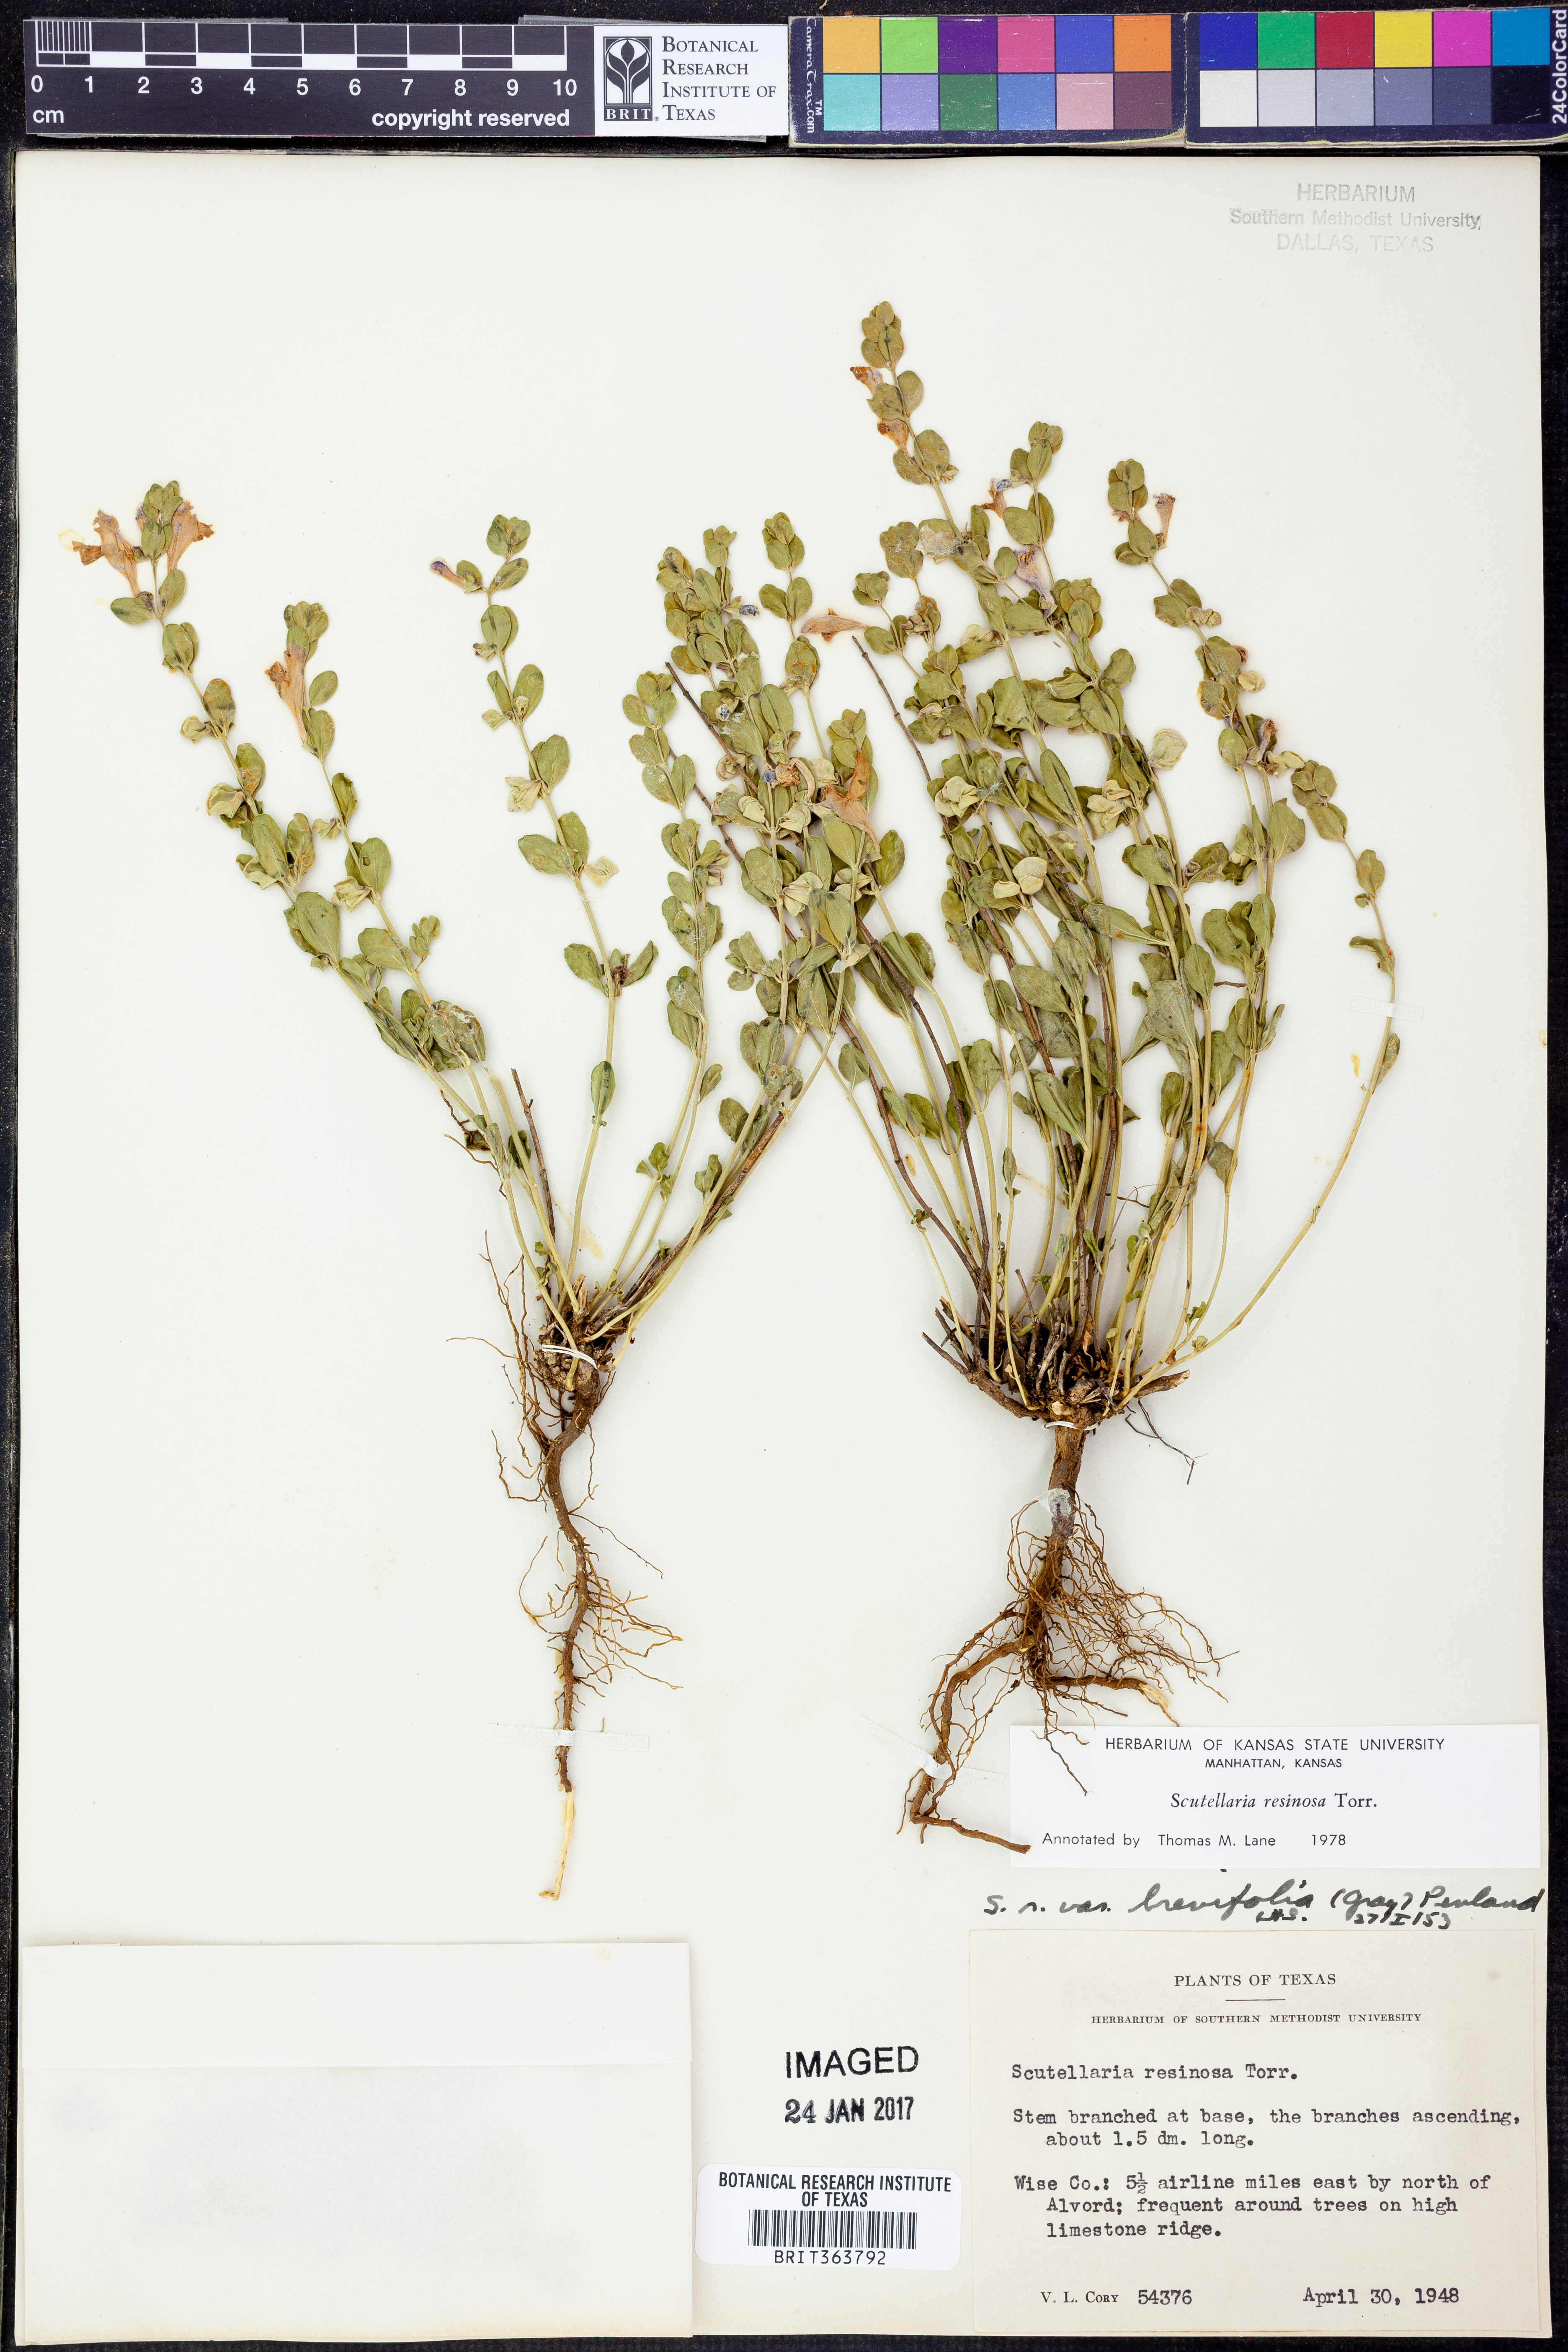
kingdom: Plantae
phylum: Tracheophyta
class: Magnoliopsida
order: Lamiales
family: Lamiaceae
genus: Scutellaria
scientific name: Scutellaria resinosa
